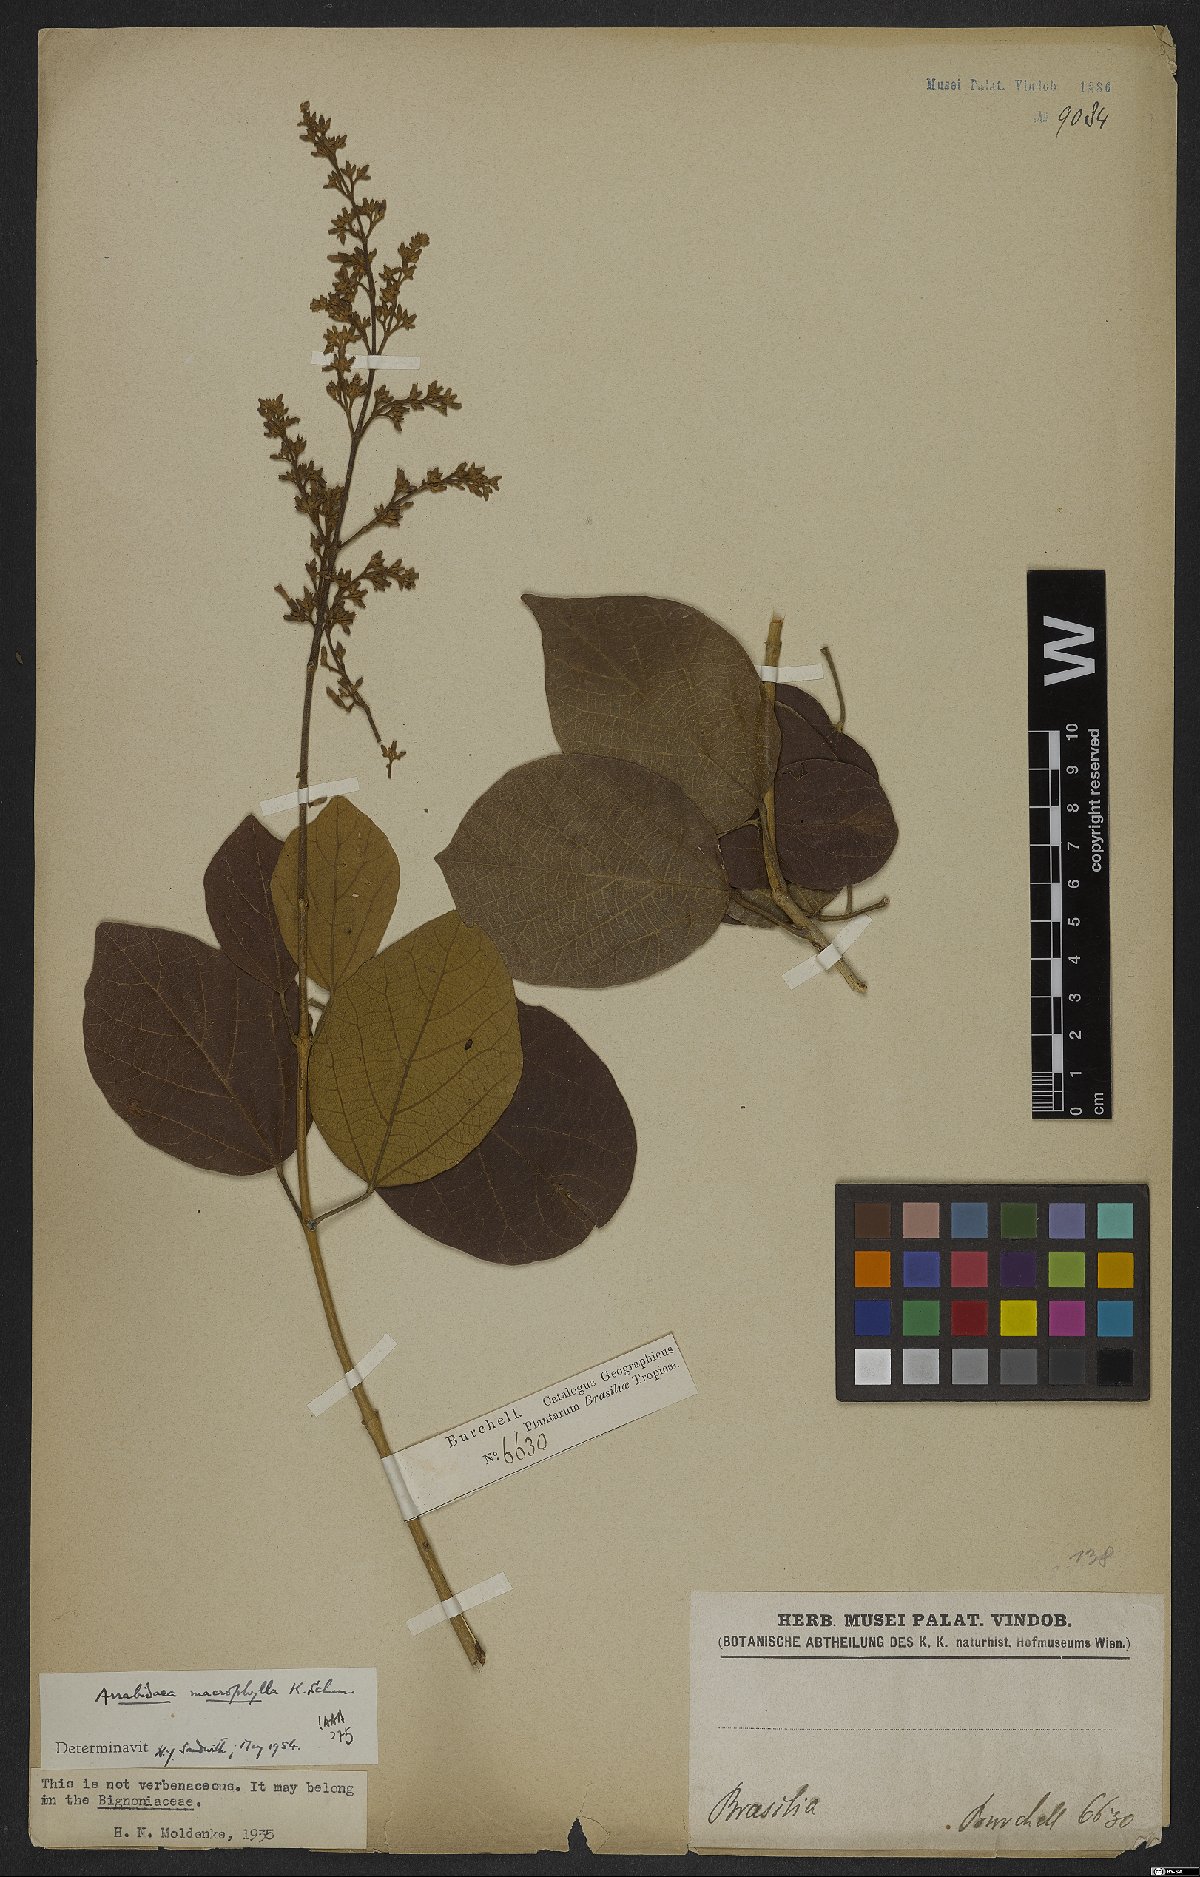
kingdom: Plantae
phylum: Tracheophyta
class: Magnoliopsida
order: Lamiales
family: Bignoniaceae
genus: Xylophragma
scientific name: Xylophragma platyphyllum
